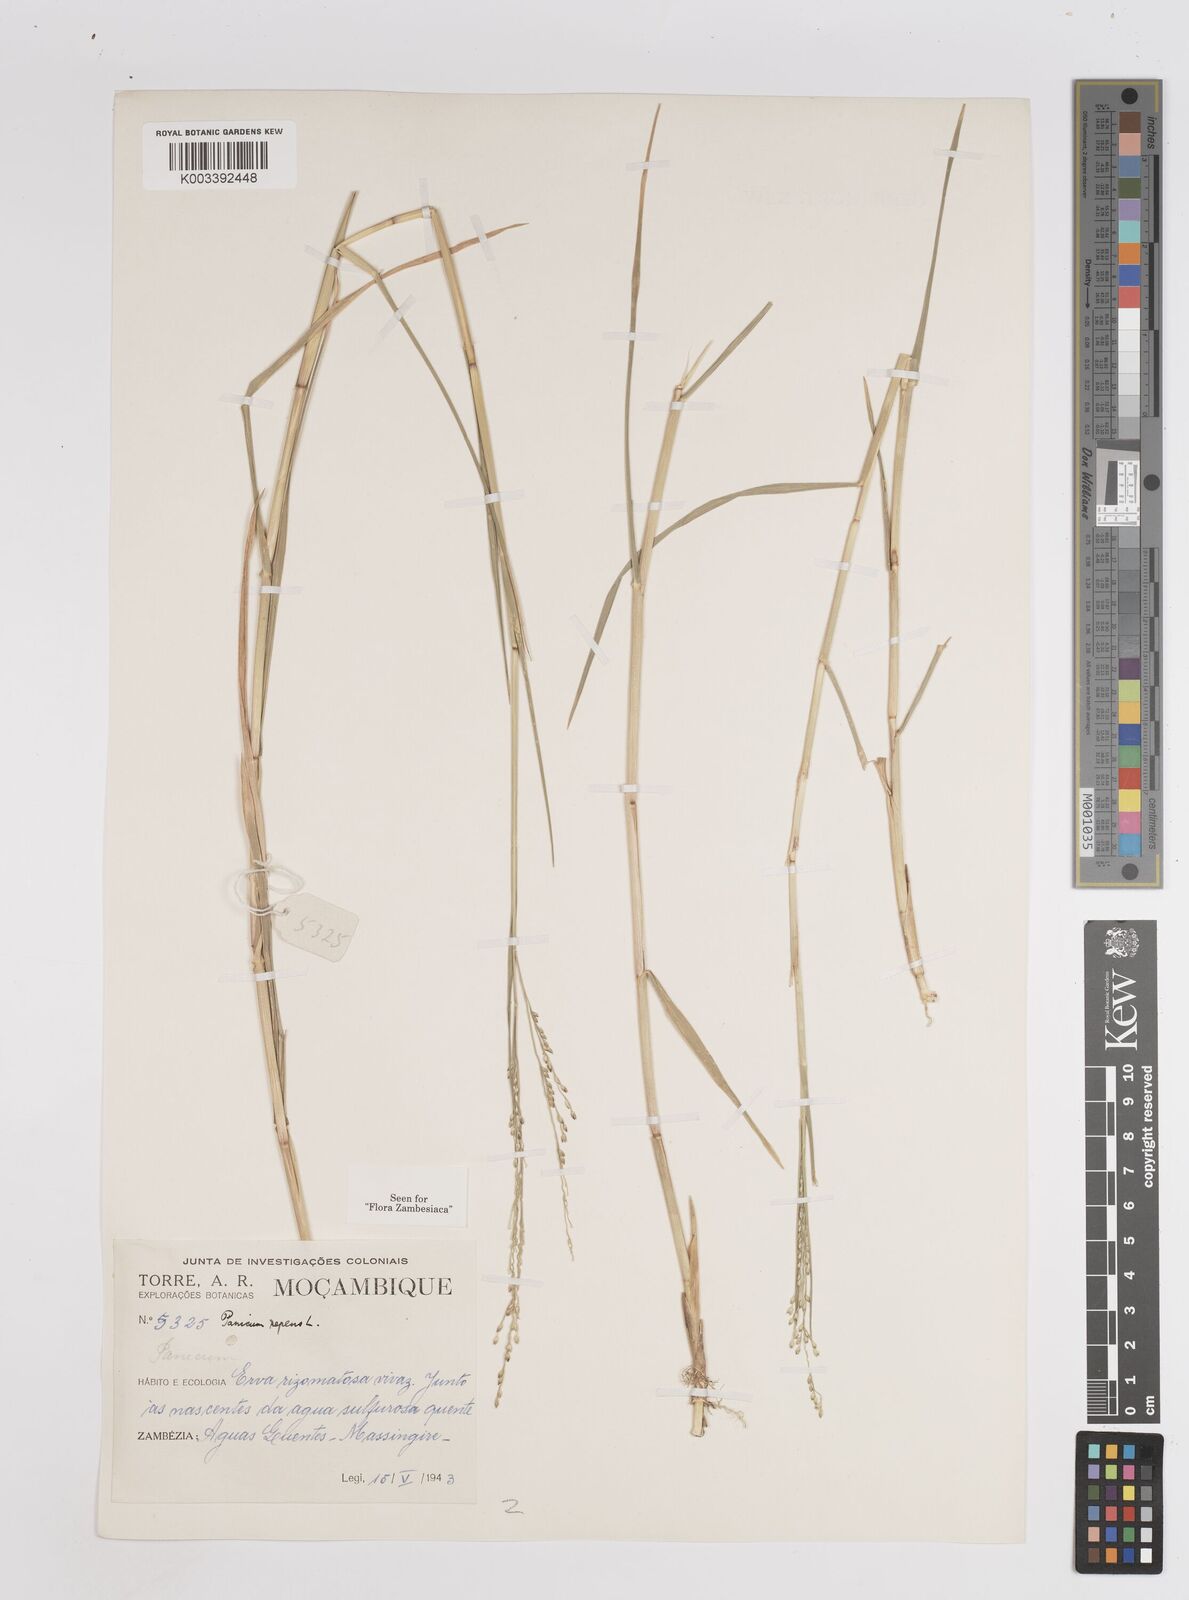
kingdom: Plantae
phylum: Tracheophyta
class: Liliopsida
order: Poales
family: Poaceae
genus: Panicum
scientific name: Panicum repens
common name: Torpedo grass
